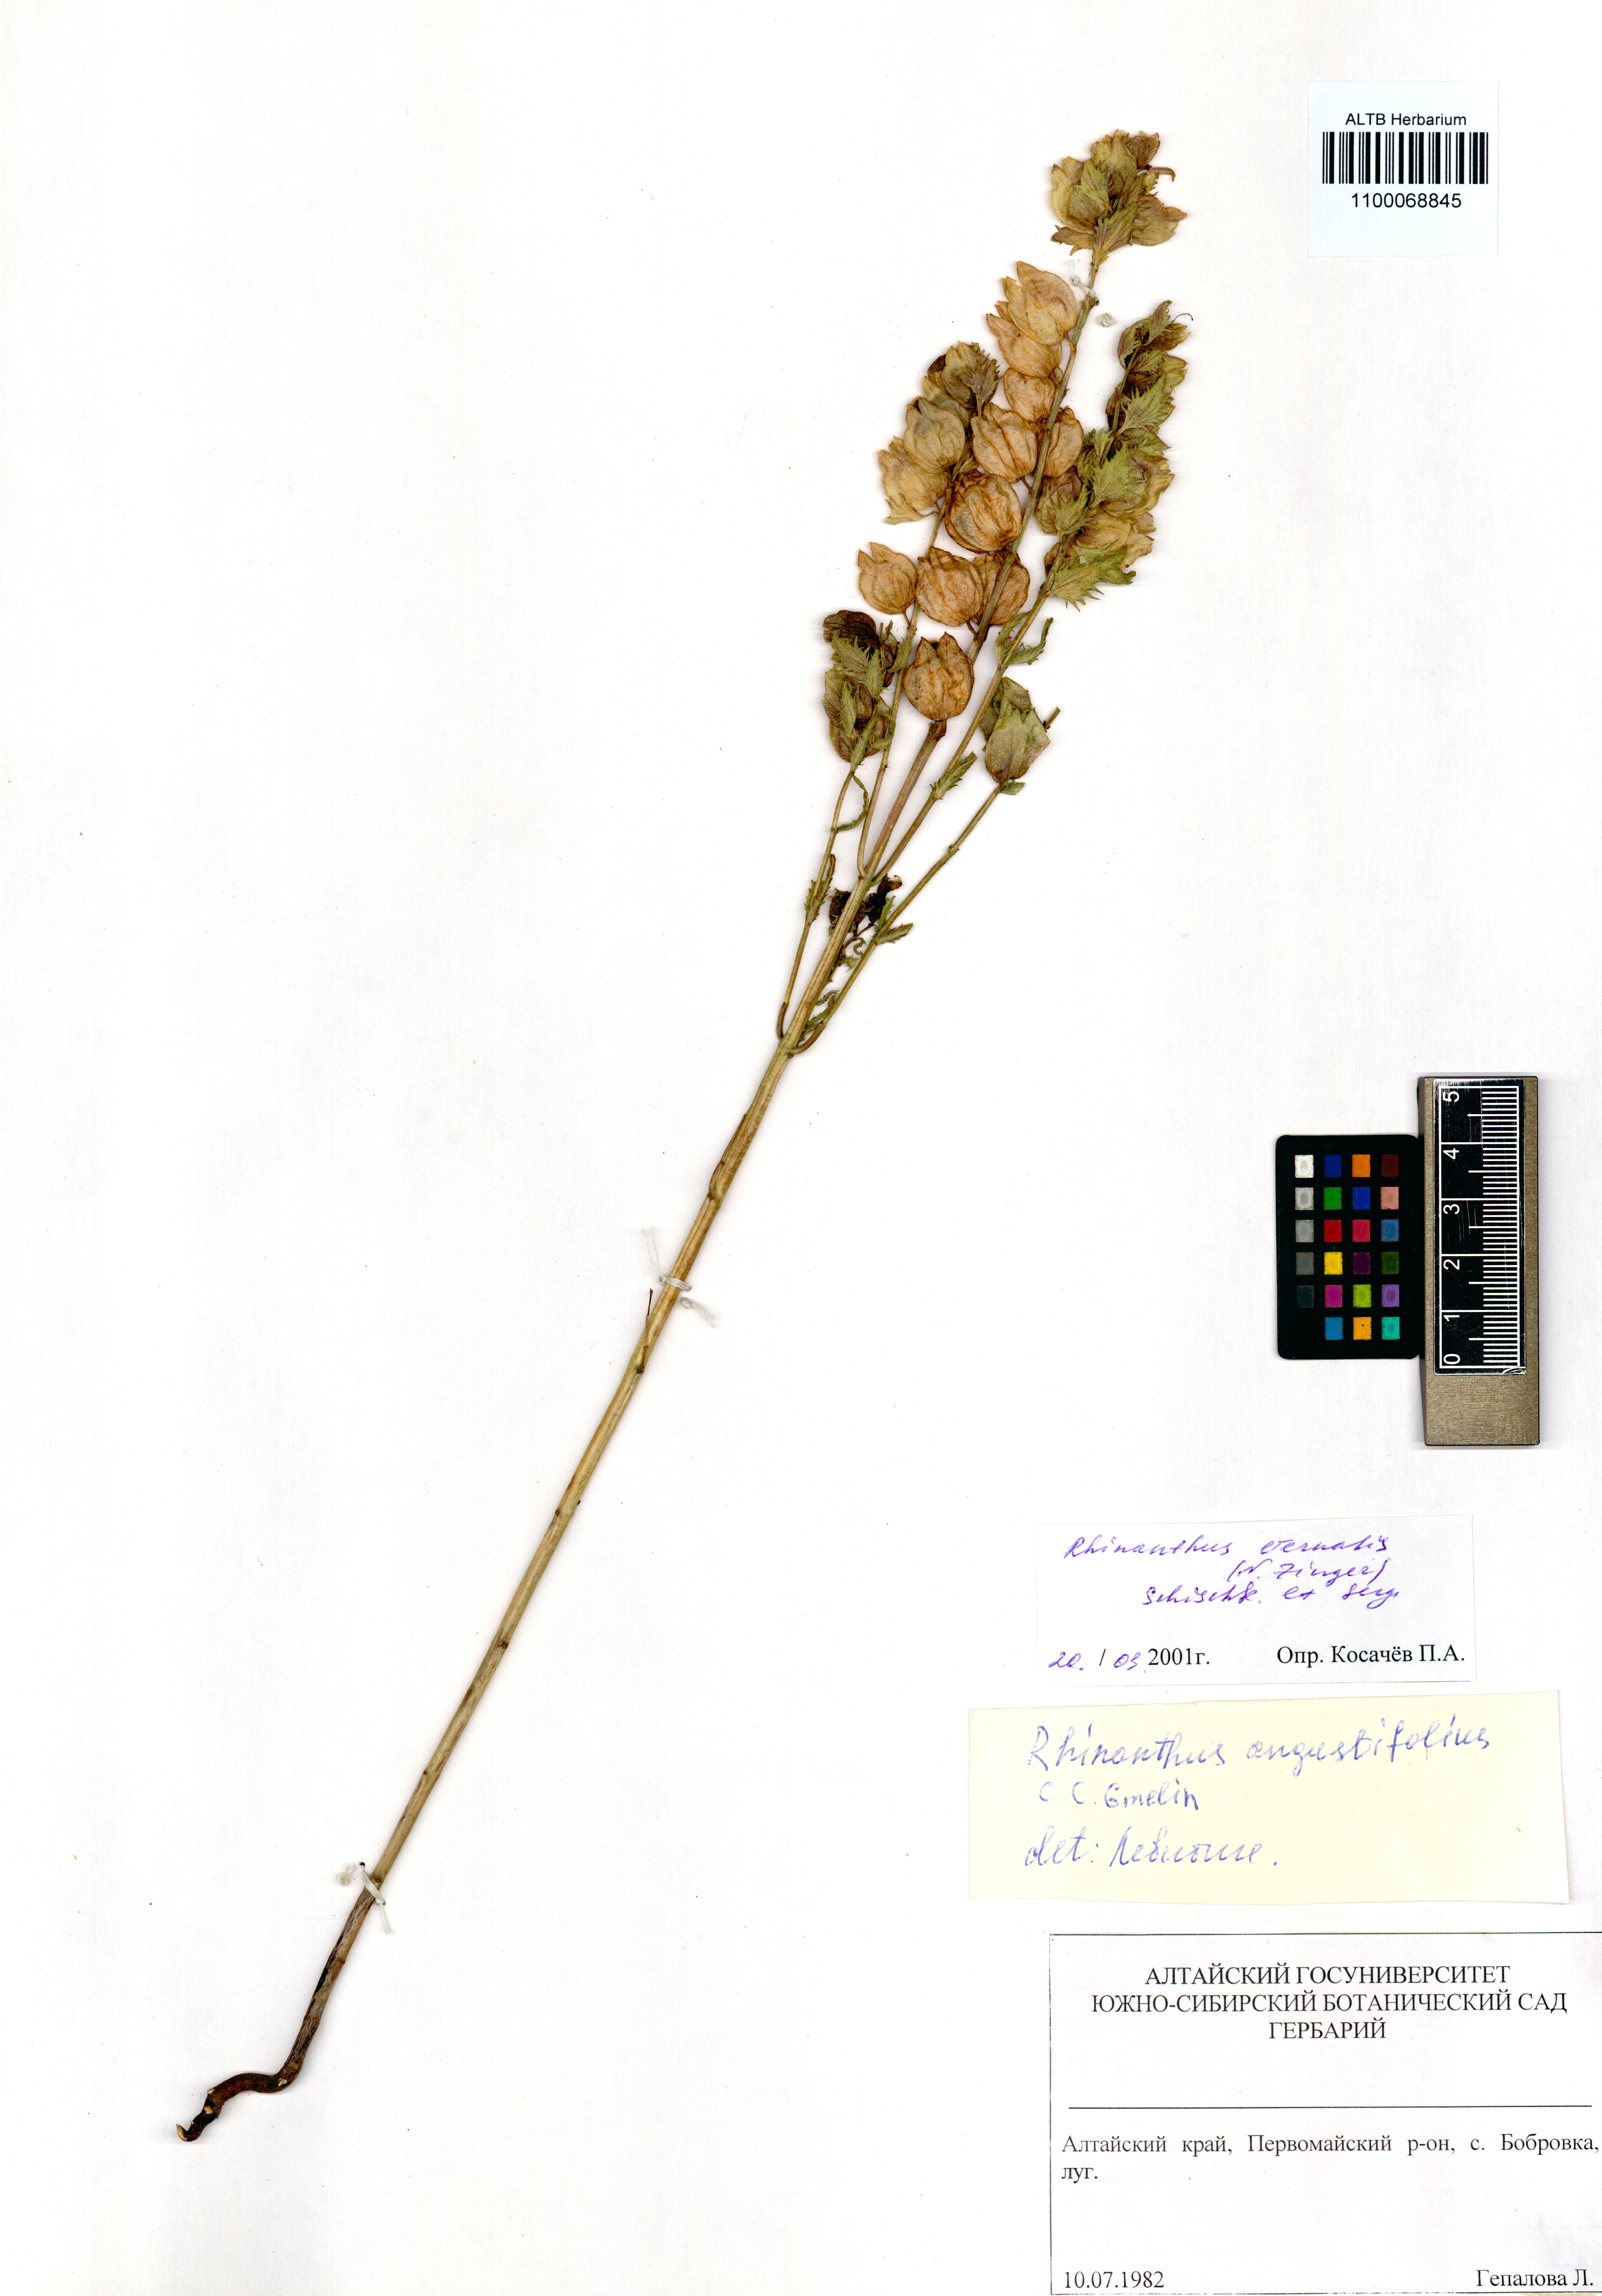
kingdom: Plantae
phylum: Tracheophyta
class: Magnoliopsida
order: Lamiales
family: Orobanchaceae
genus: Rhinanthus
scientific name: Rhinanthus serotinus
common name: Late-flowering yellow rattle
